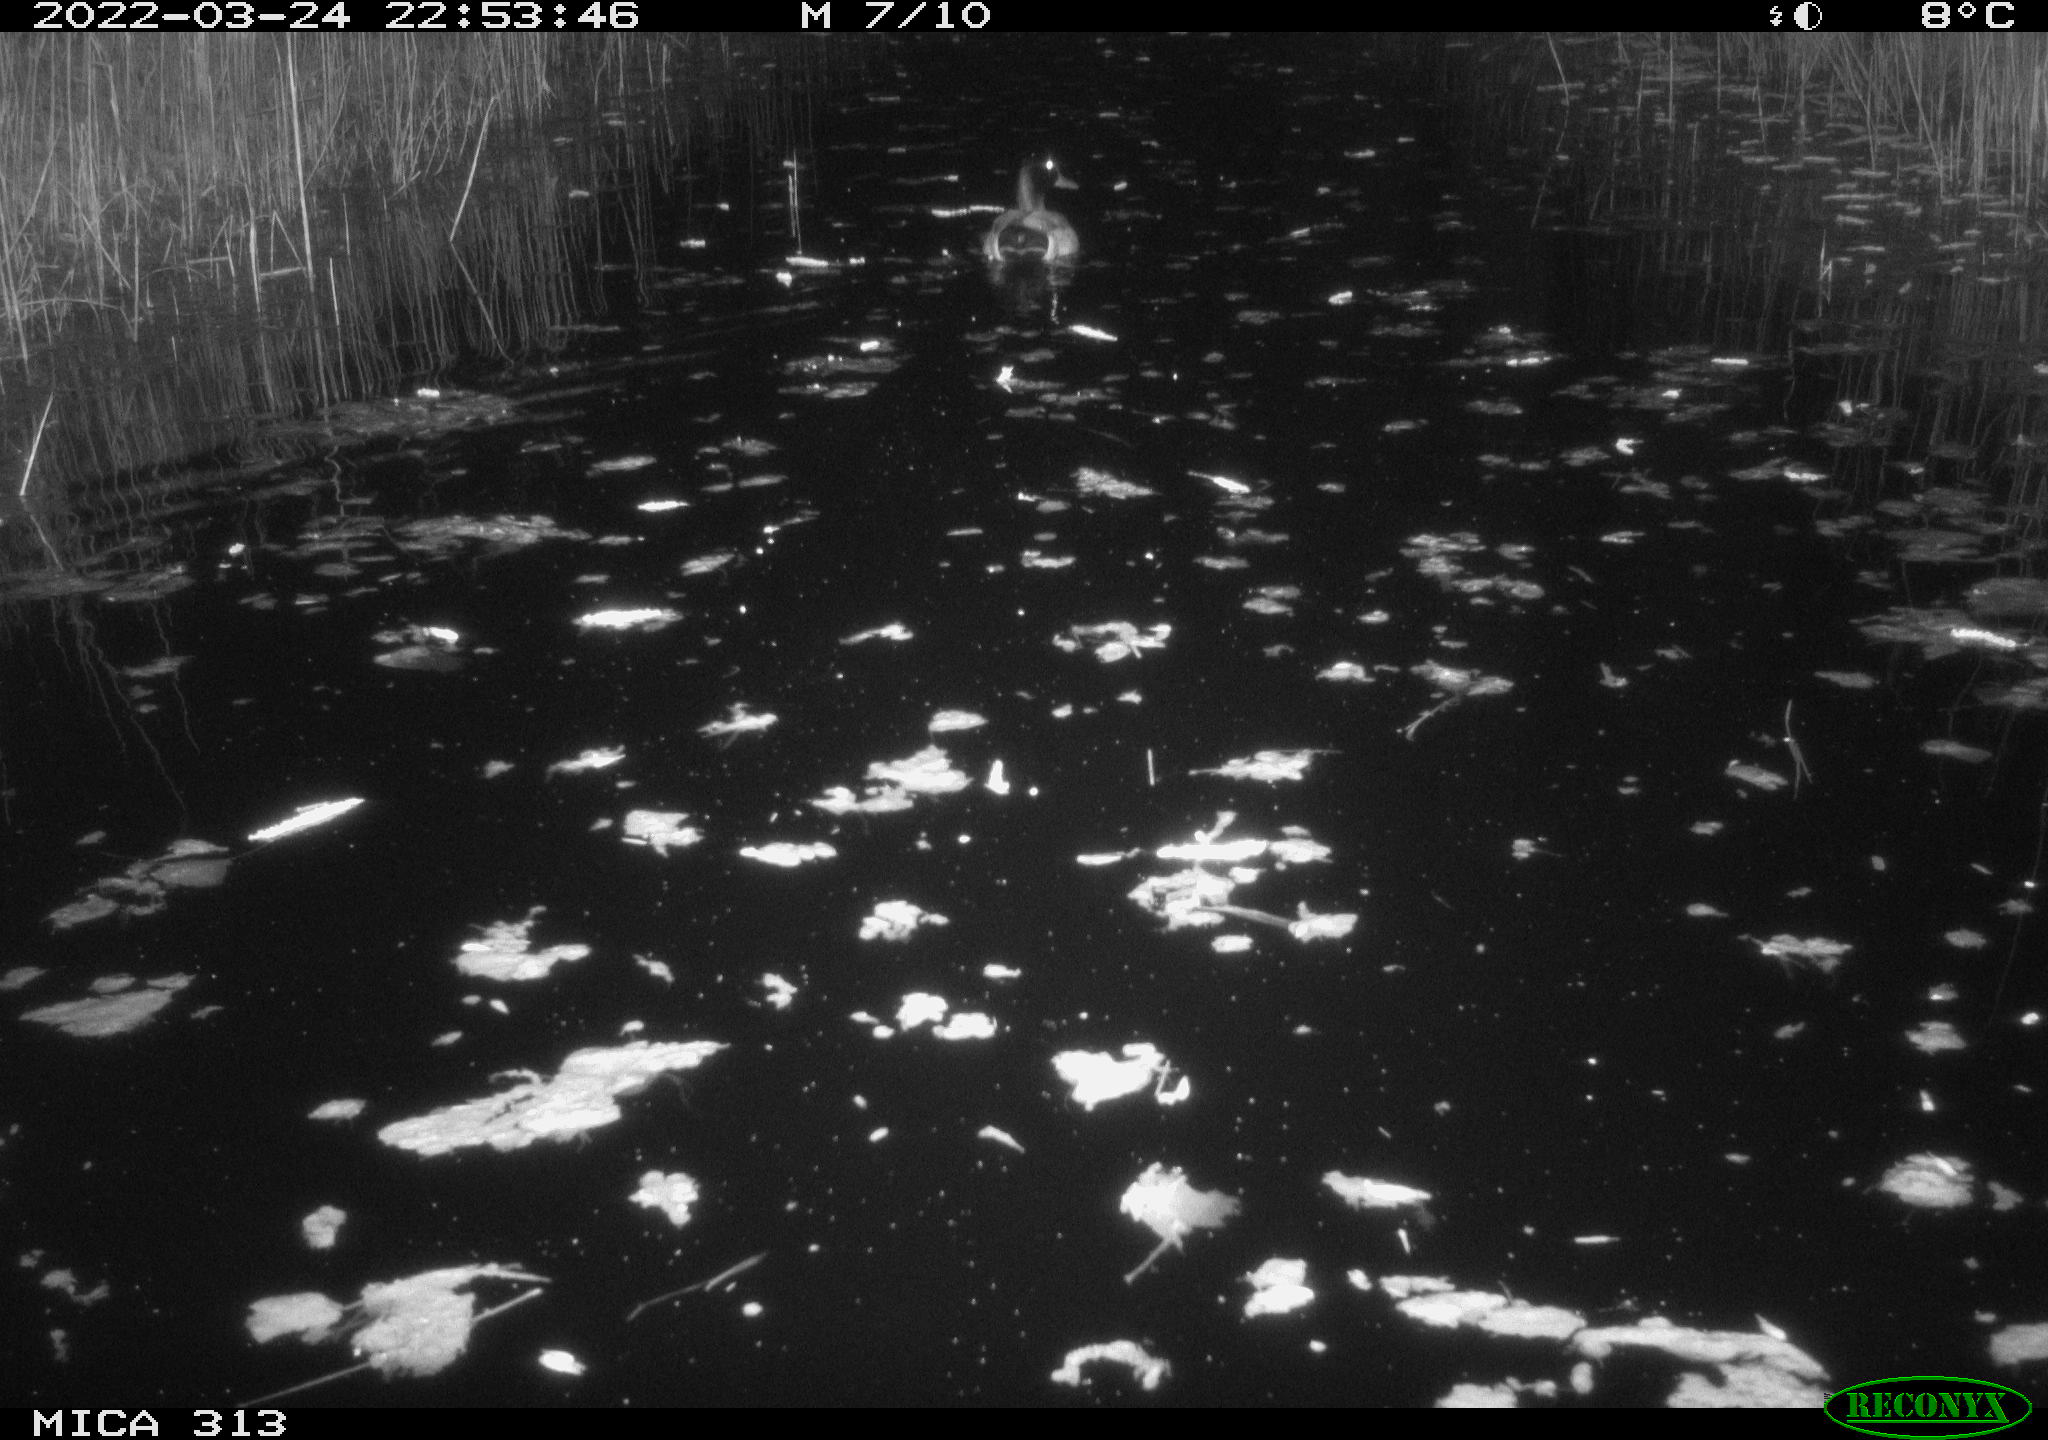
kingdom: Animalia
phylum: Chordata
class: Aves
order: Anseriformes
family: Anatidae
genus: Anas
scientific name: Anas platyrhynchos
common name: Mallard
